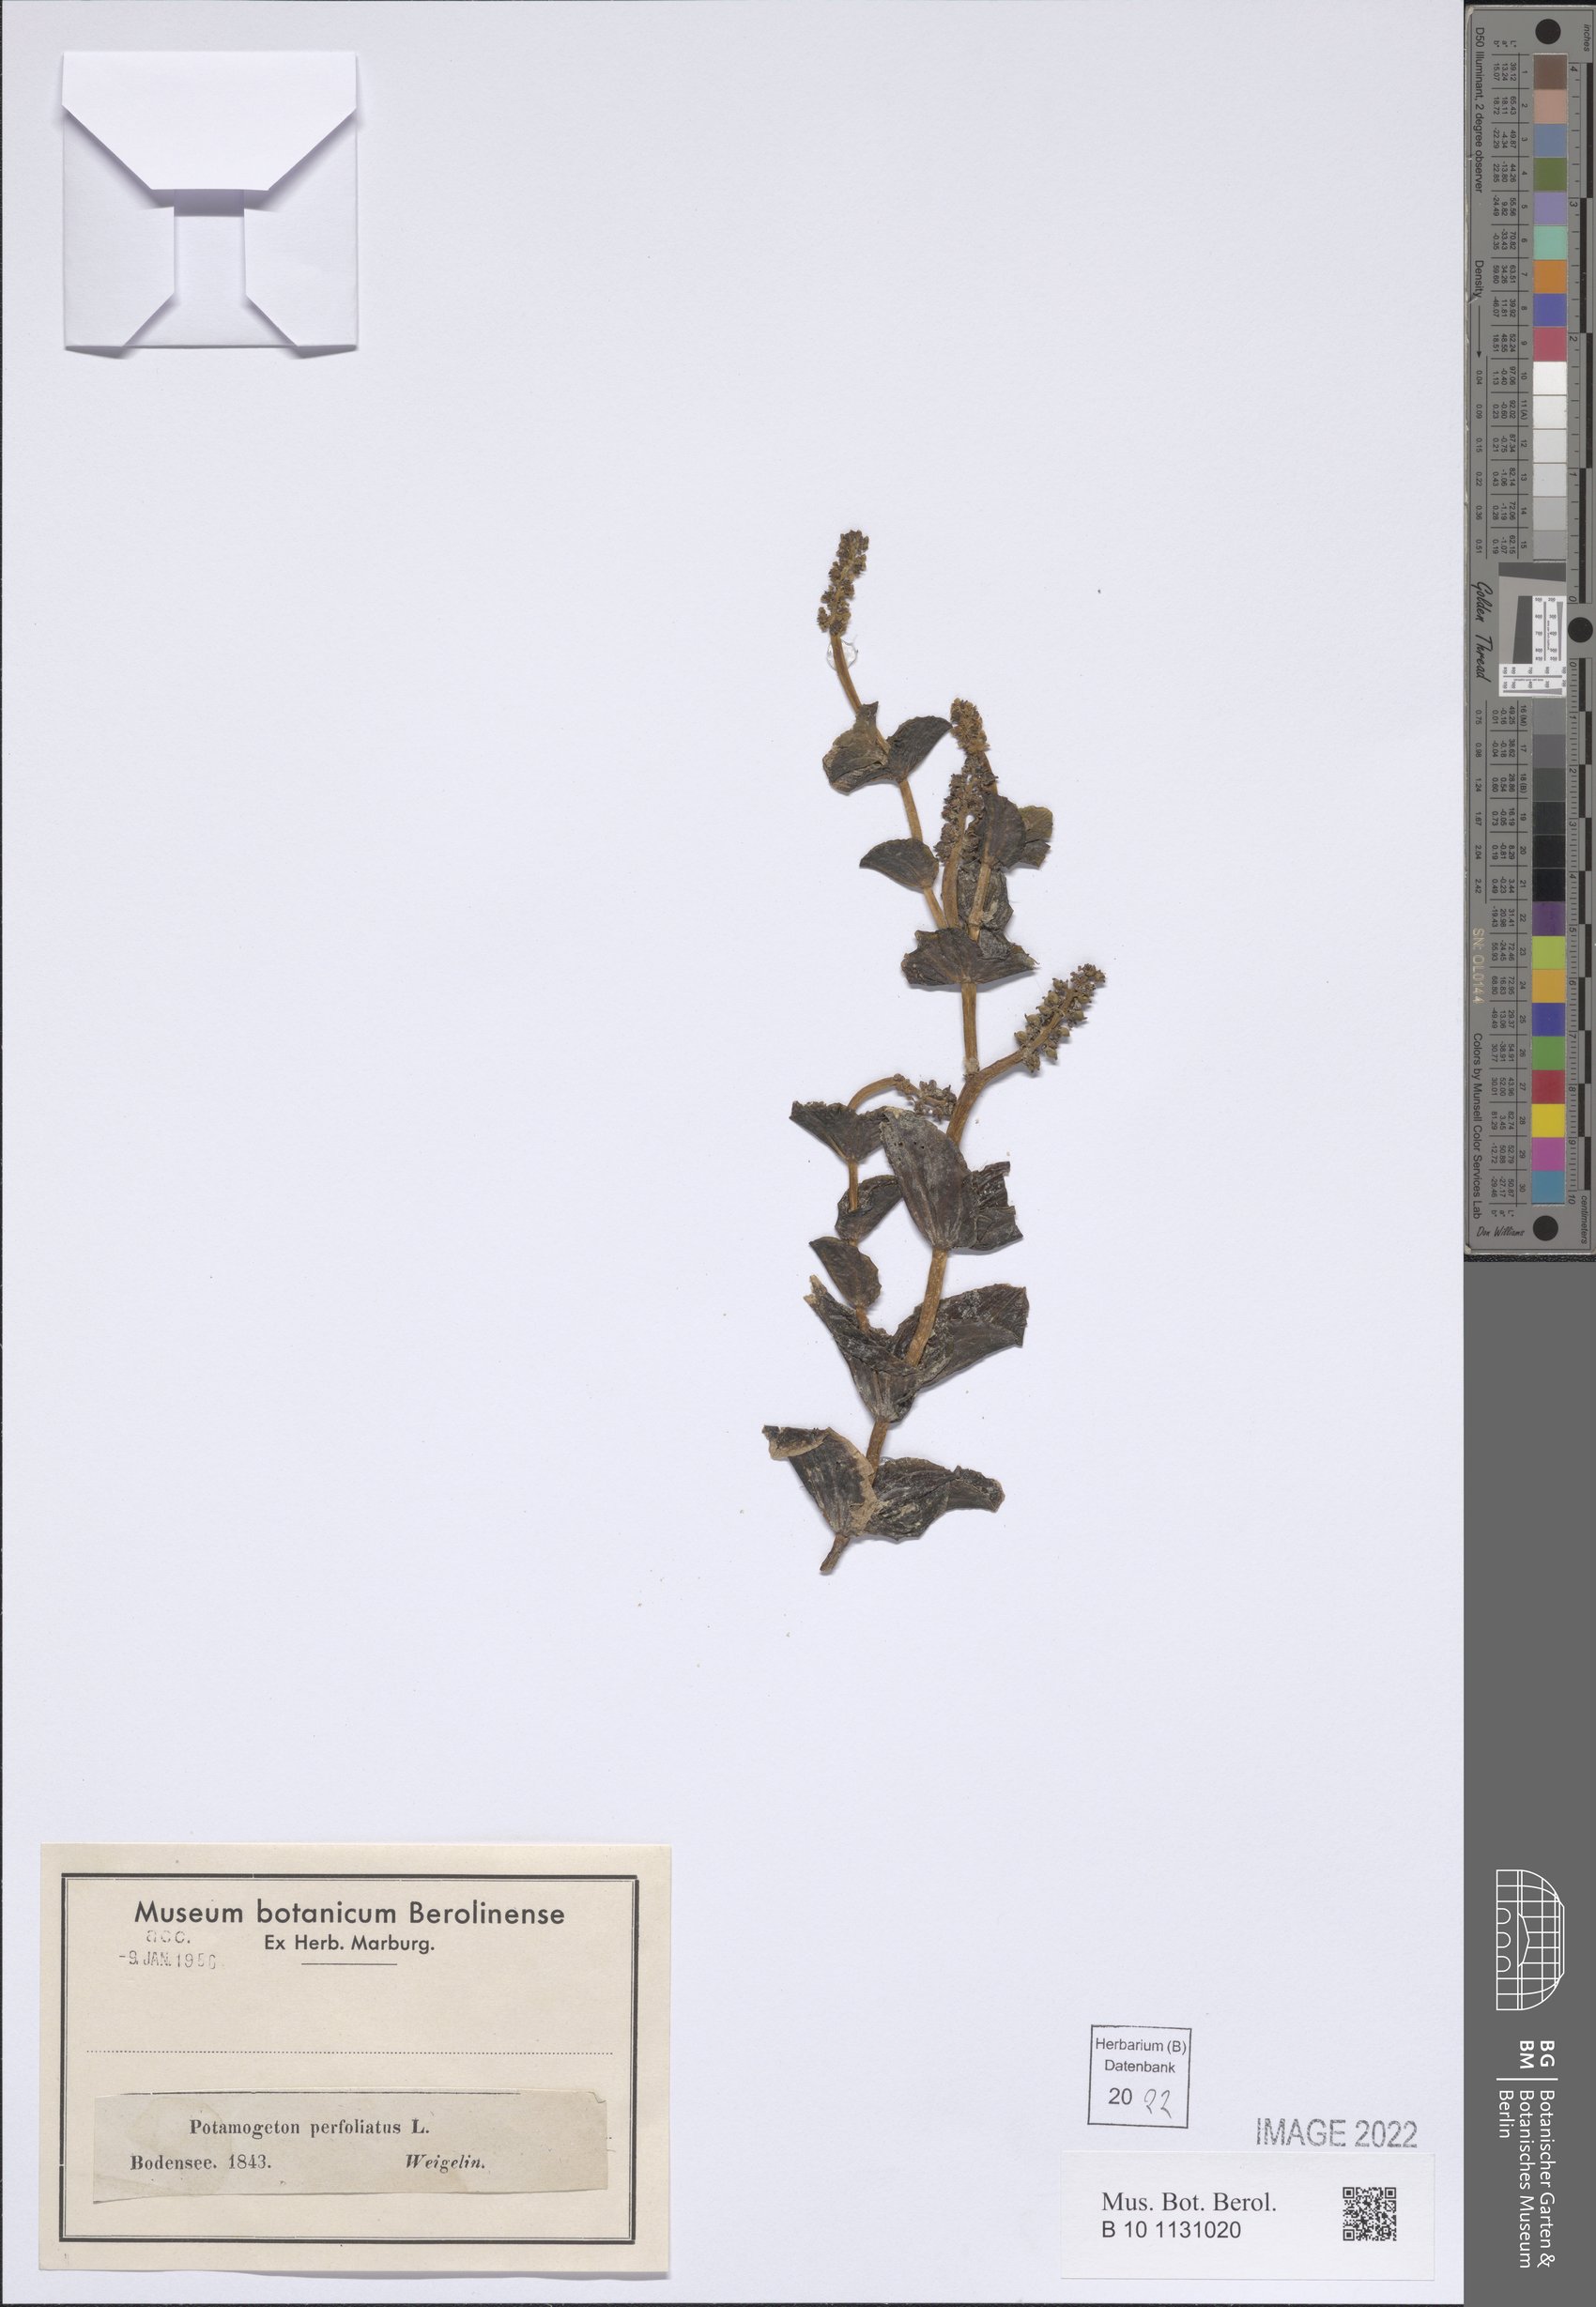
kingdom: Plantae
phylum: Tracheophyta
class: Liliopsida
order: Alismatales
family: Potamogetonaceae
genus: Potamogeton
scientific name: Potamogeton perfoliatus
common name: Perfoliate pondweed
